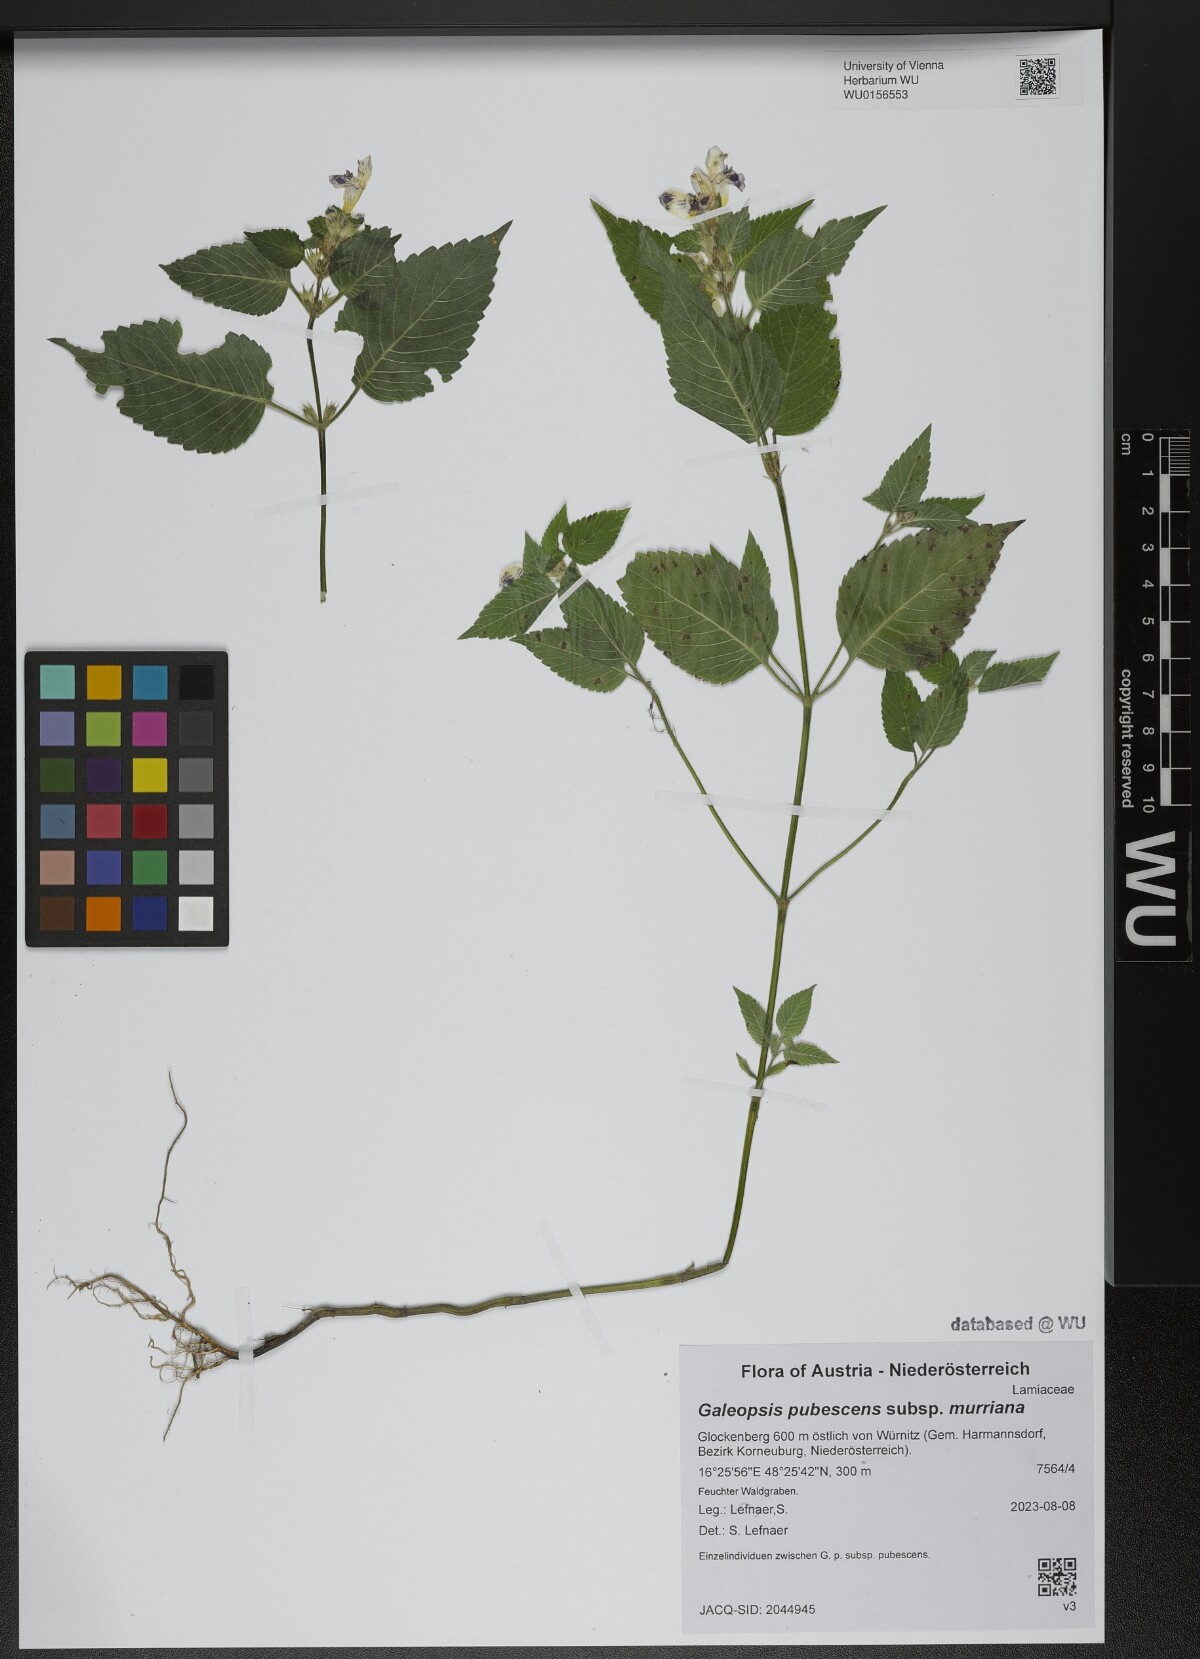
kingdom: Plantae
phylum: Tracheophyta
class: Magnoliopsida
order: Lamiales
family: Lamiaceae
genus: Galeopsis
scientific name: Galeopsis pubescens
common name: Downy hemp-nettle
